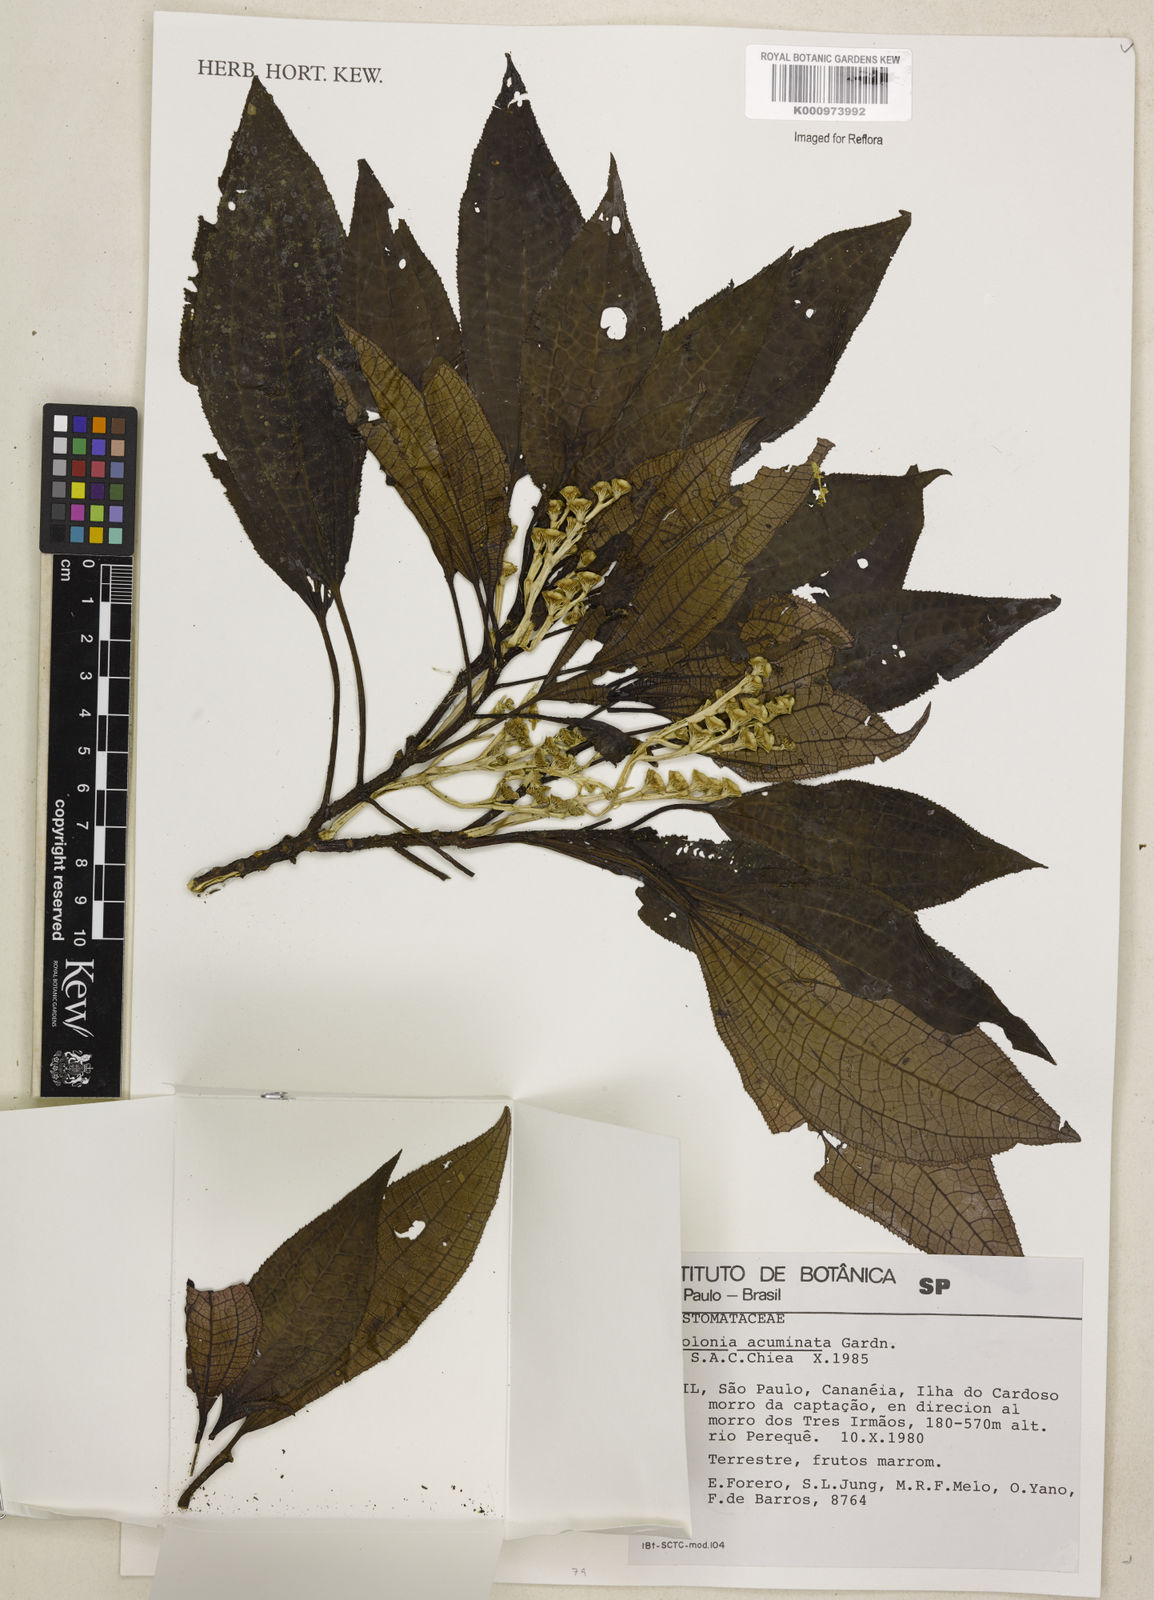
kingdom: Plantae
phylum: Tracheophyta
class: Magnoliopsida
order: Myrtales
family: Melastomataceae
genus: Bertolonia
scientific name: Bertolonia acuminata
